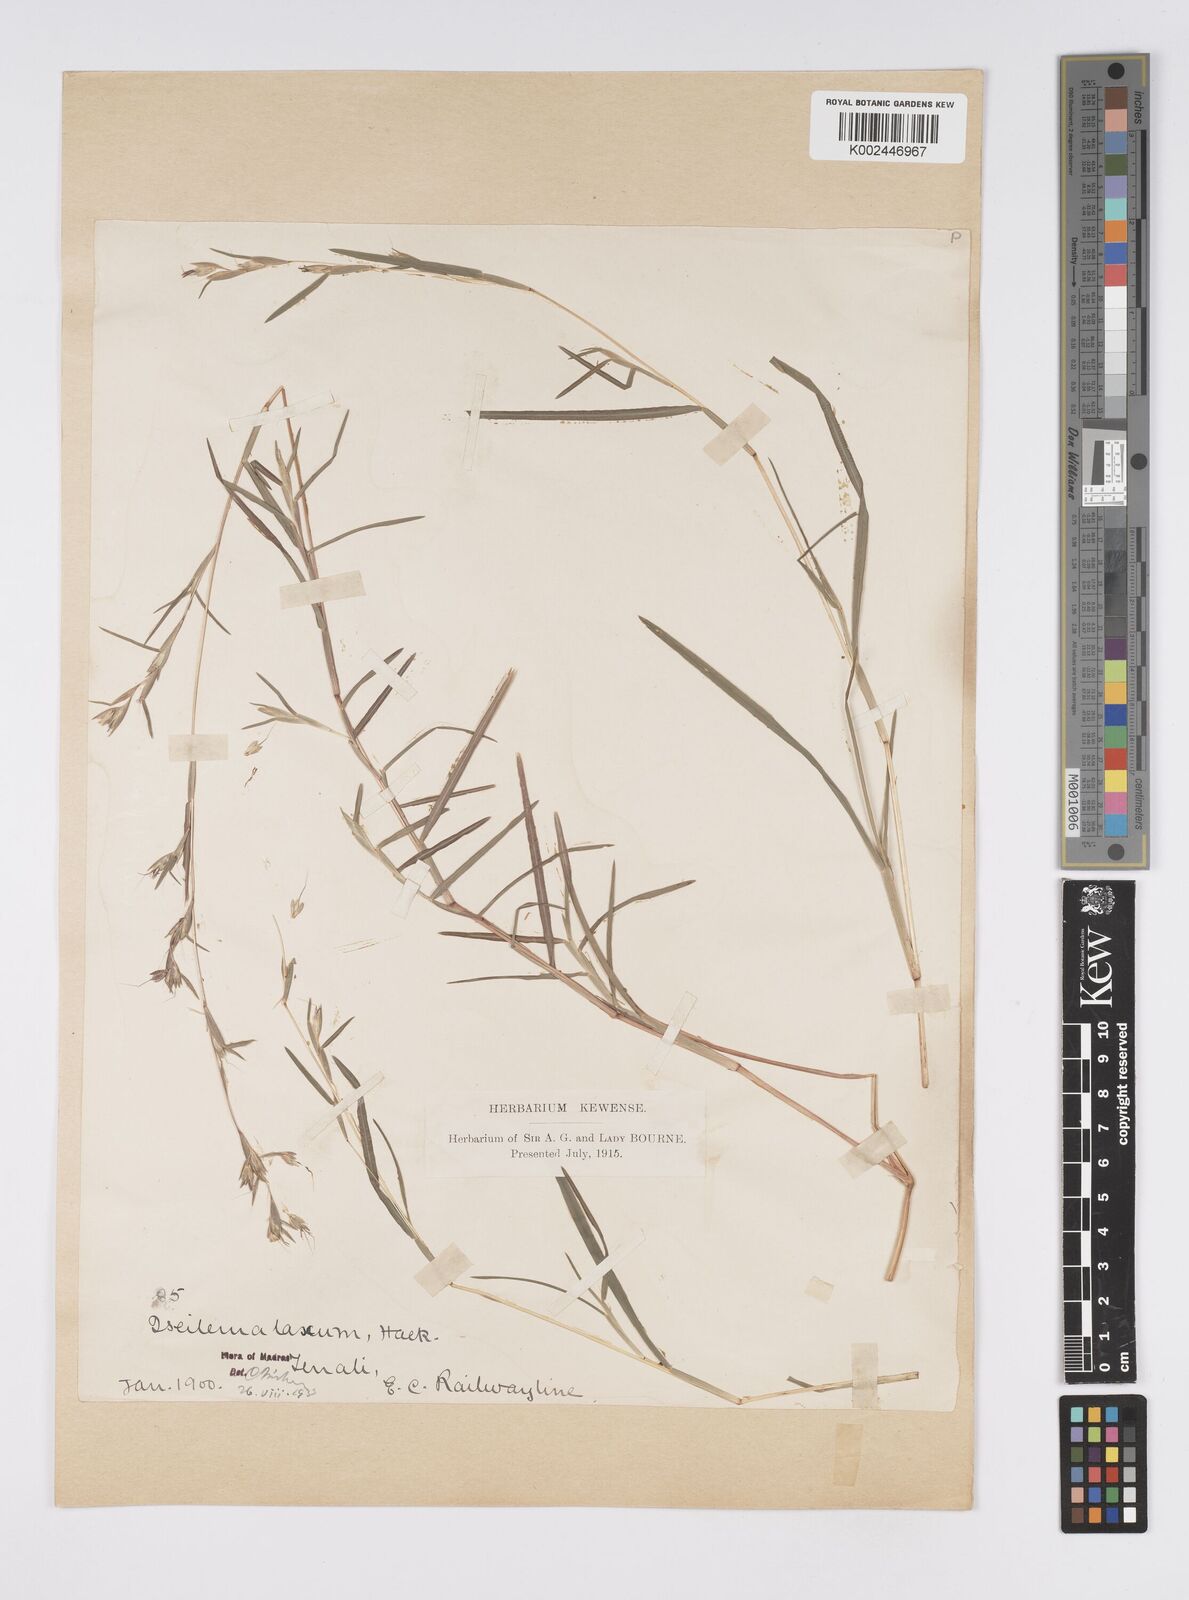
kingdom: Plantae
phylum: Tracheophyta
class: Liliopsida
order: Poales
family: Poaceae
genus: Iseilema
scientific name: Iseilema prostratum
